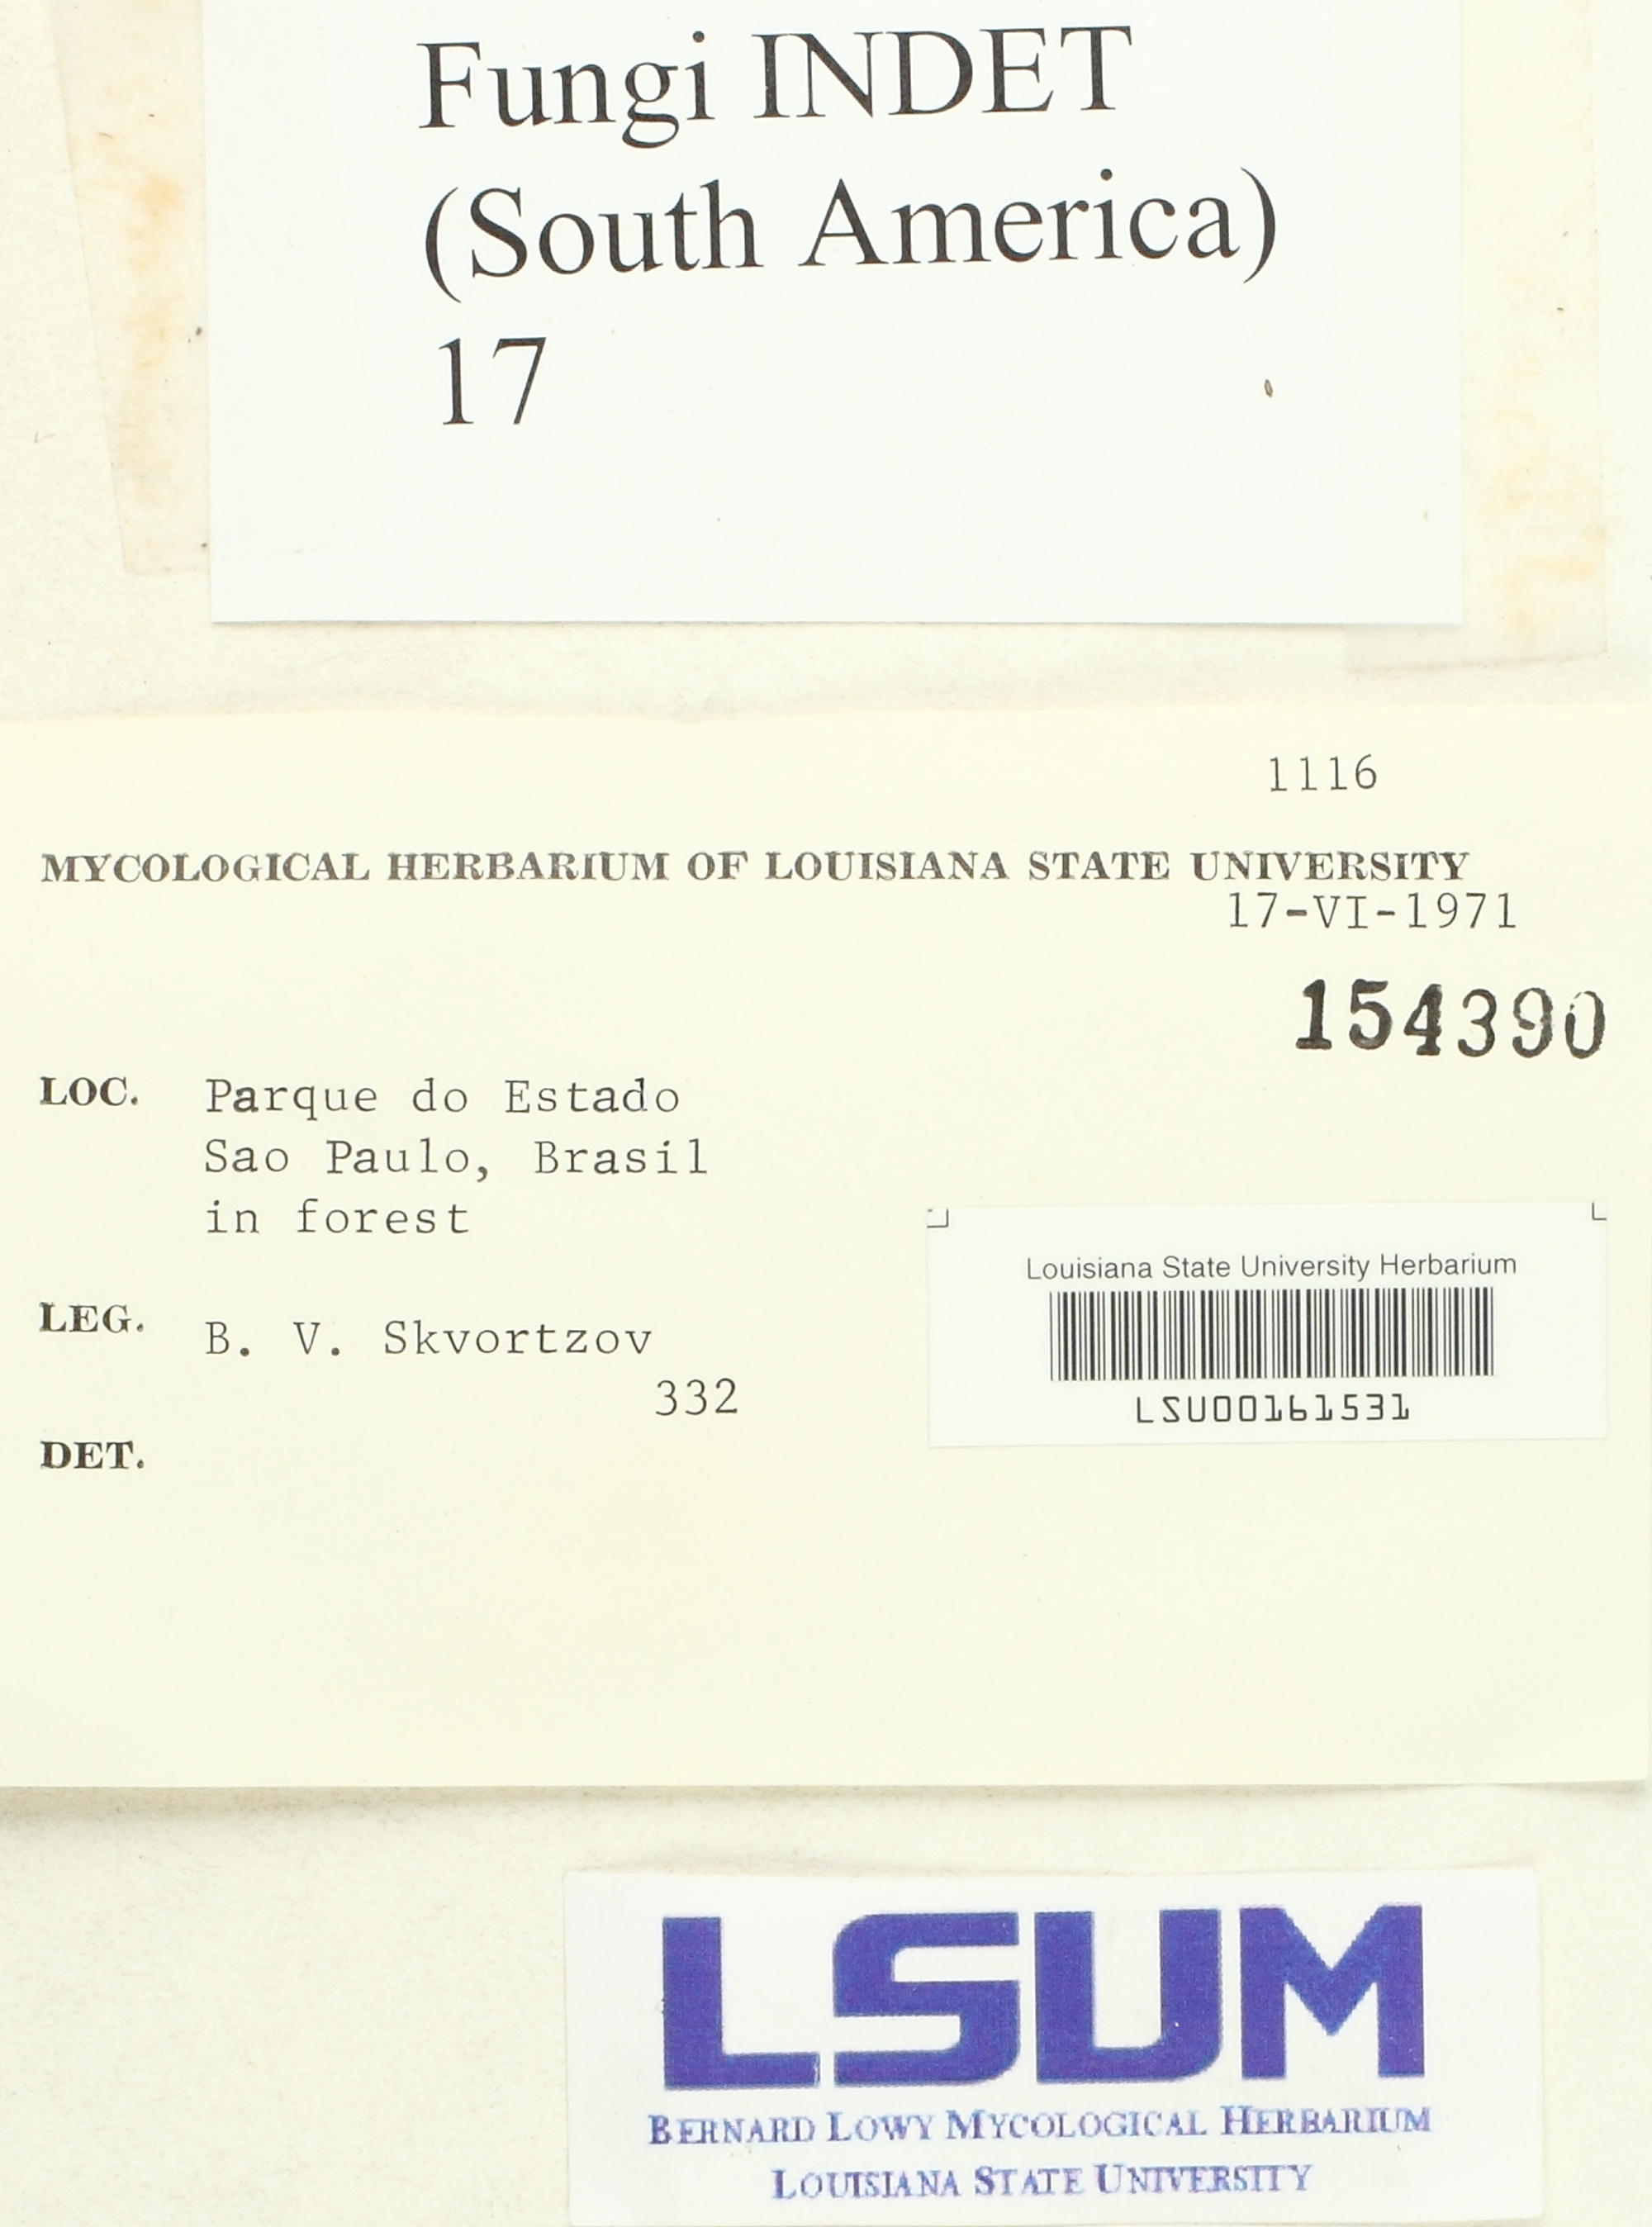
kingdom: Fungi
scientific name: Fungi
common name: Fungi
